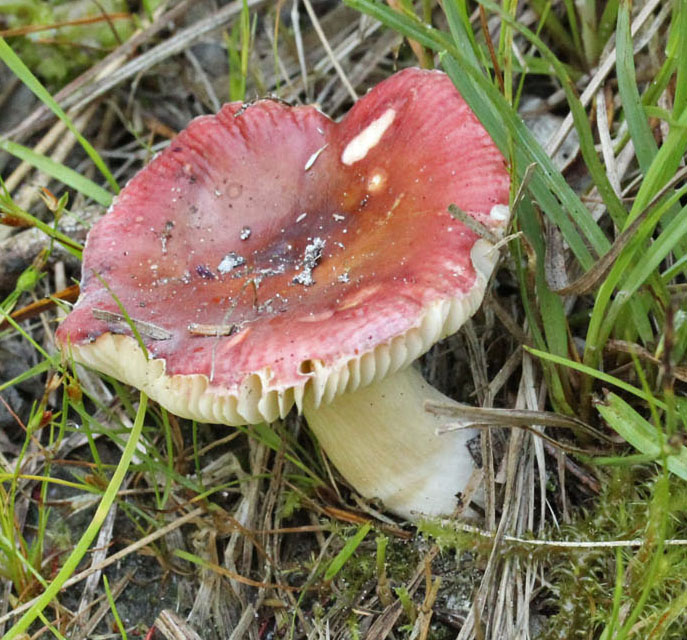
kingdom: Fungi
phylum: Basidiomycota
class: Agaricomycetes
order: Russulales
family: Russulaceae
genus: Russula
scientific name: Russula subrubens
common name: pile-skørhat
